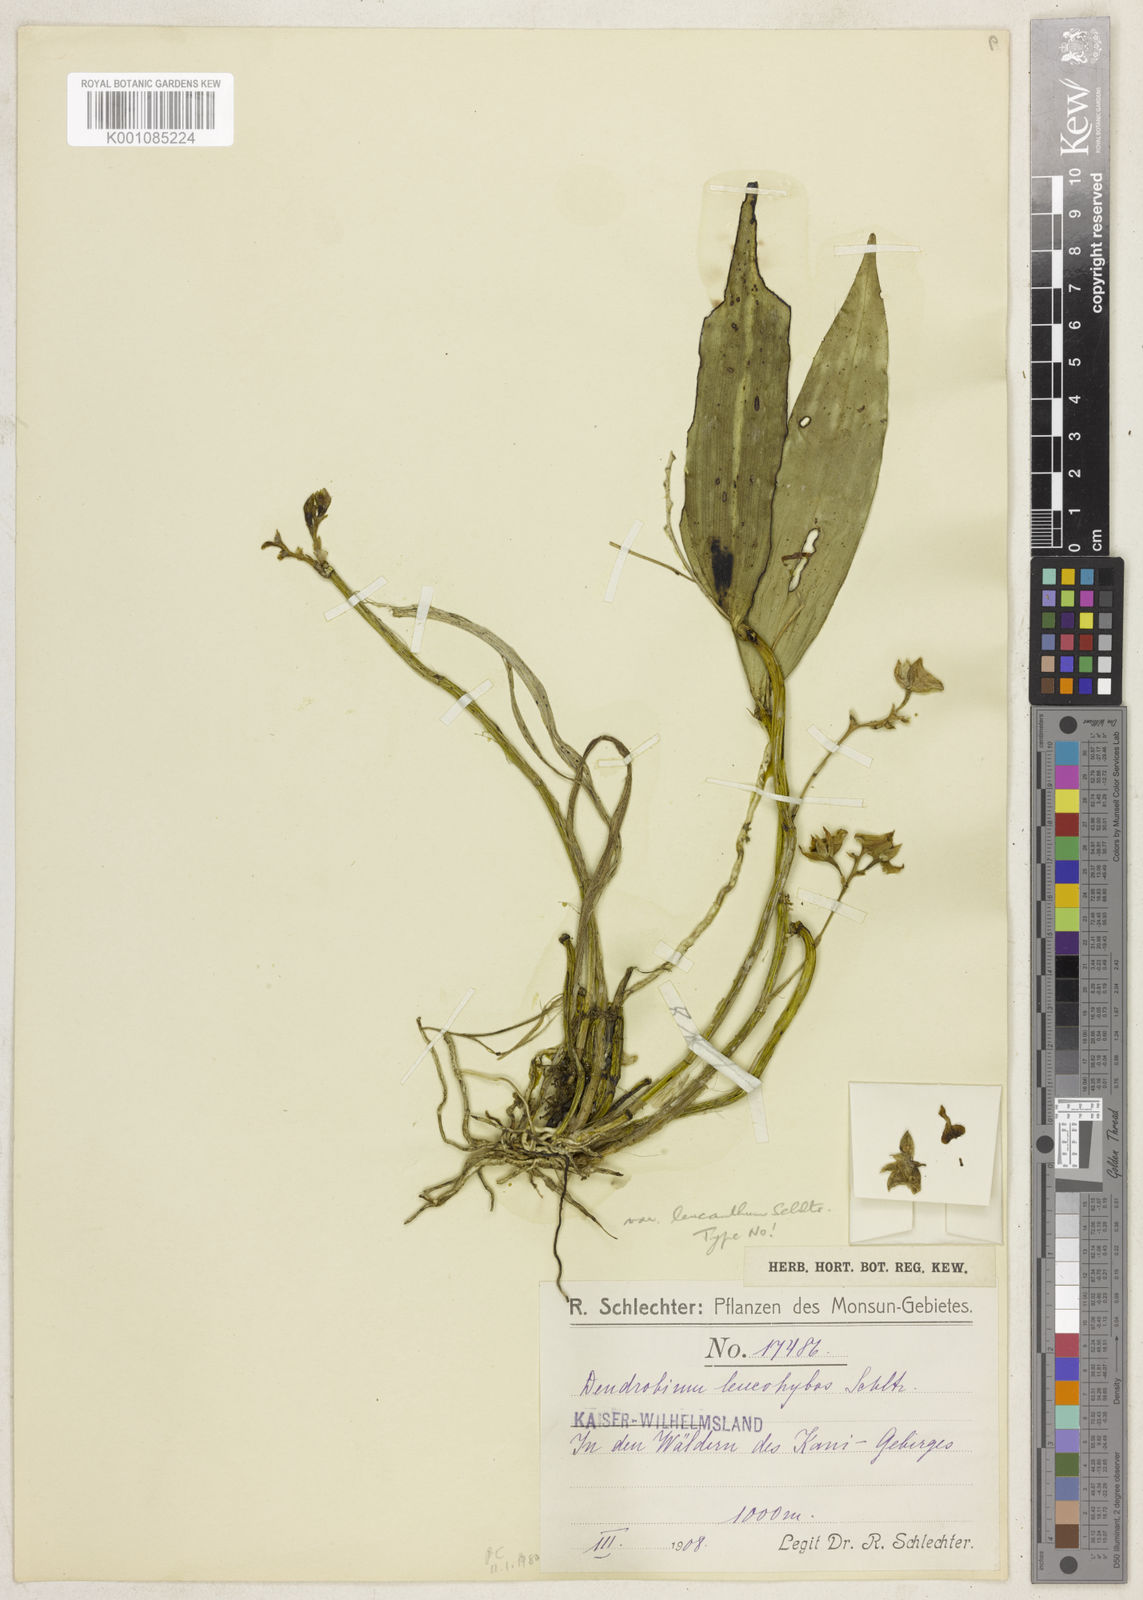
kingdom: Plantae
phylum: Tracheophyta
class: Liliopsida
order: Asparagales
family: Orchidaceae
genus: Dendrobium
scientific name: Dendrobium leucohybos
